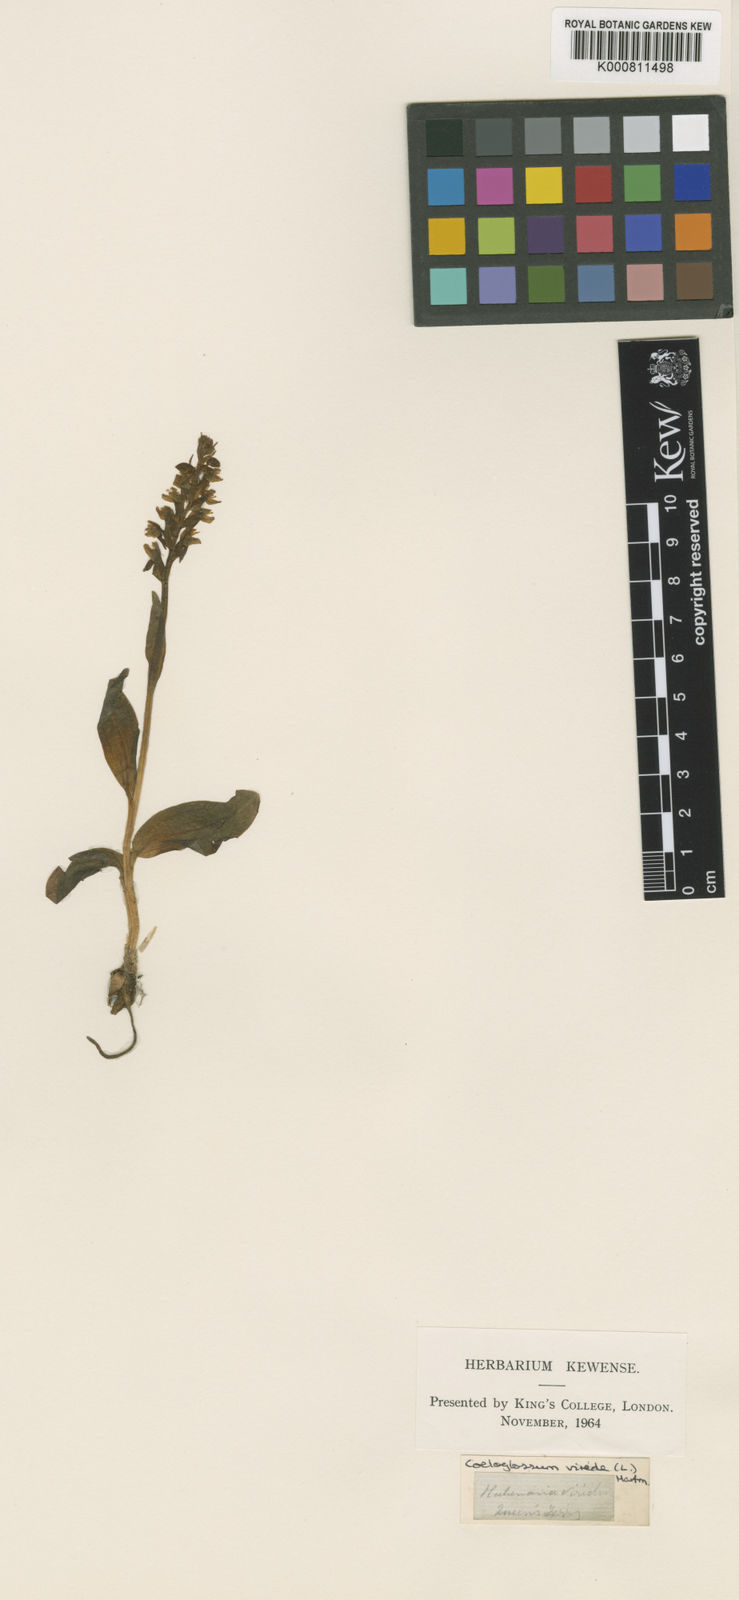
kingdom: Plantae
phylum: Tracheophyta
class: Liliopsida
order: Asparagales
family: Orchidaceae
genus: Dactylorhiza
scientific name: Dactylorhiza viridis
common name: Longbract frog orchid
